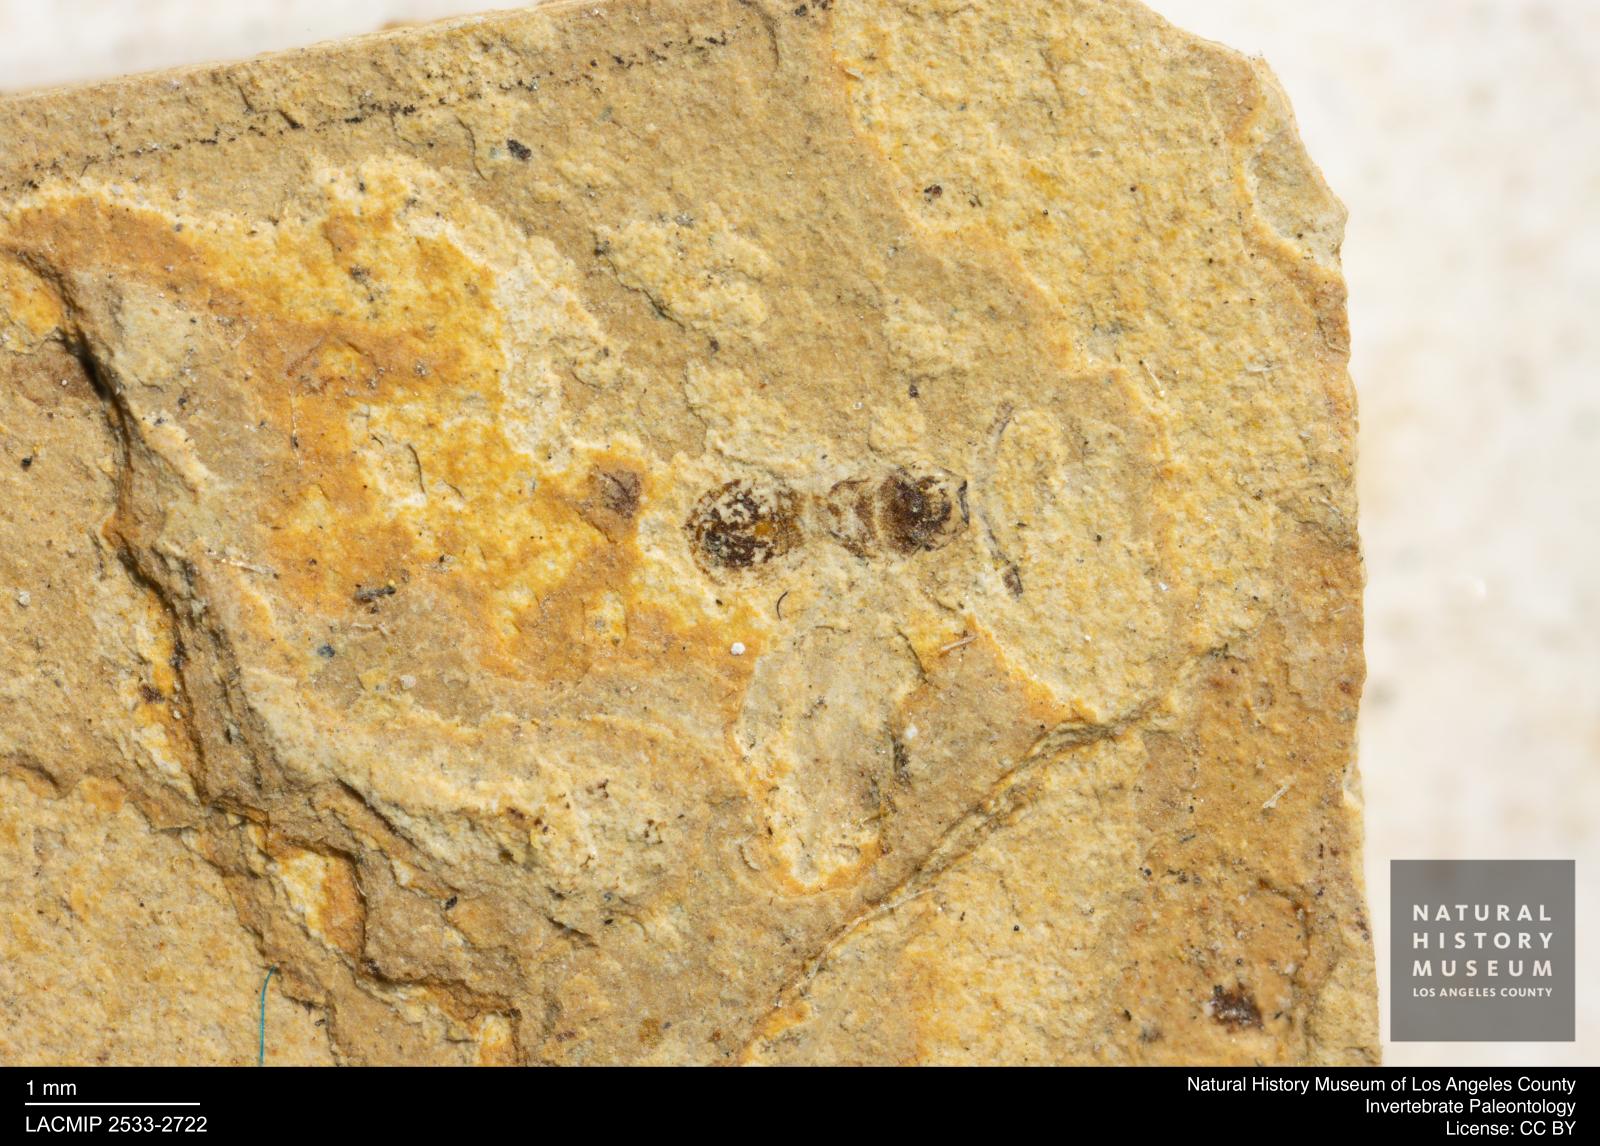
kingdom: Animalia
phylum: Arthropoda
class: Insecta
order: Hymenoptera
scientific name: Hymenoptera
